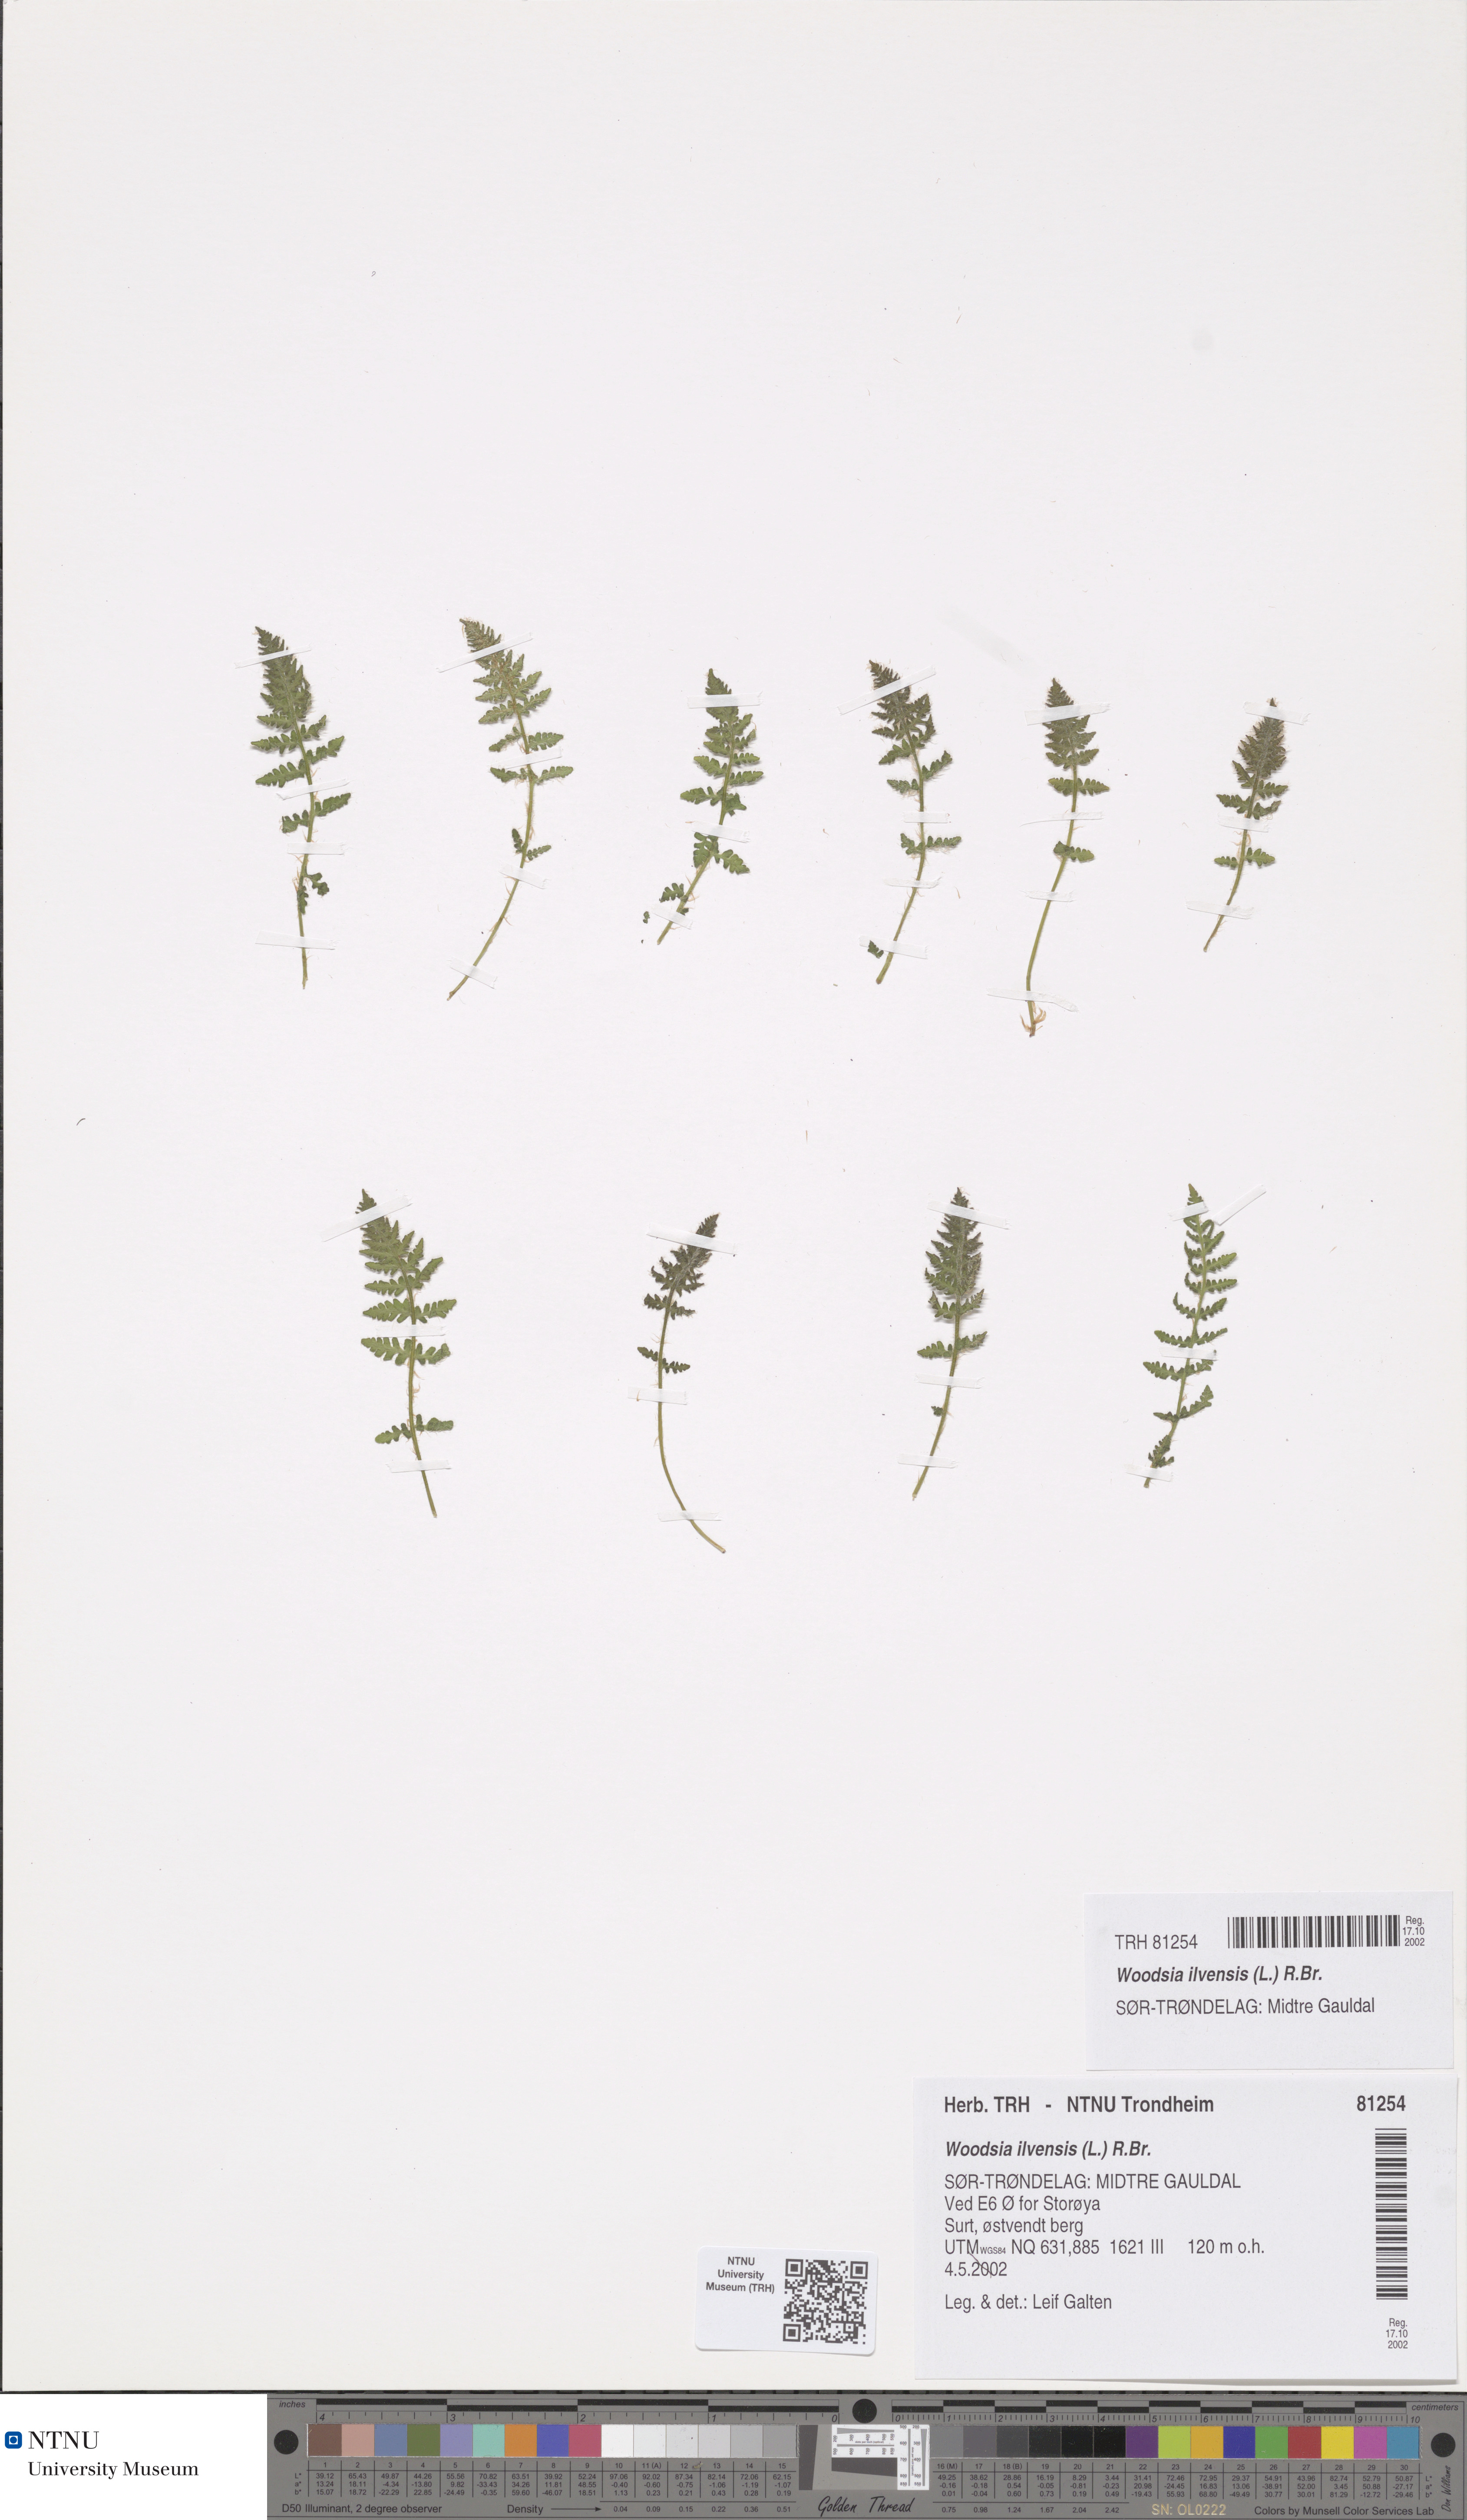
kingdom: Plantae
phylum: Tracheophyta
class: Polypodiopsida
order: Polypodiales
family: Woodsiaceae
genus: Woodsia
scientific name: Woodsia ilvensis
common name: Fragrant woodsia
